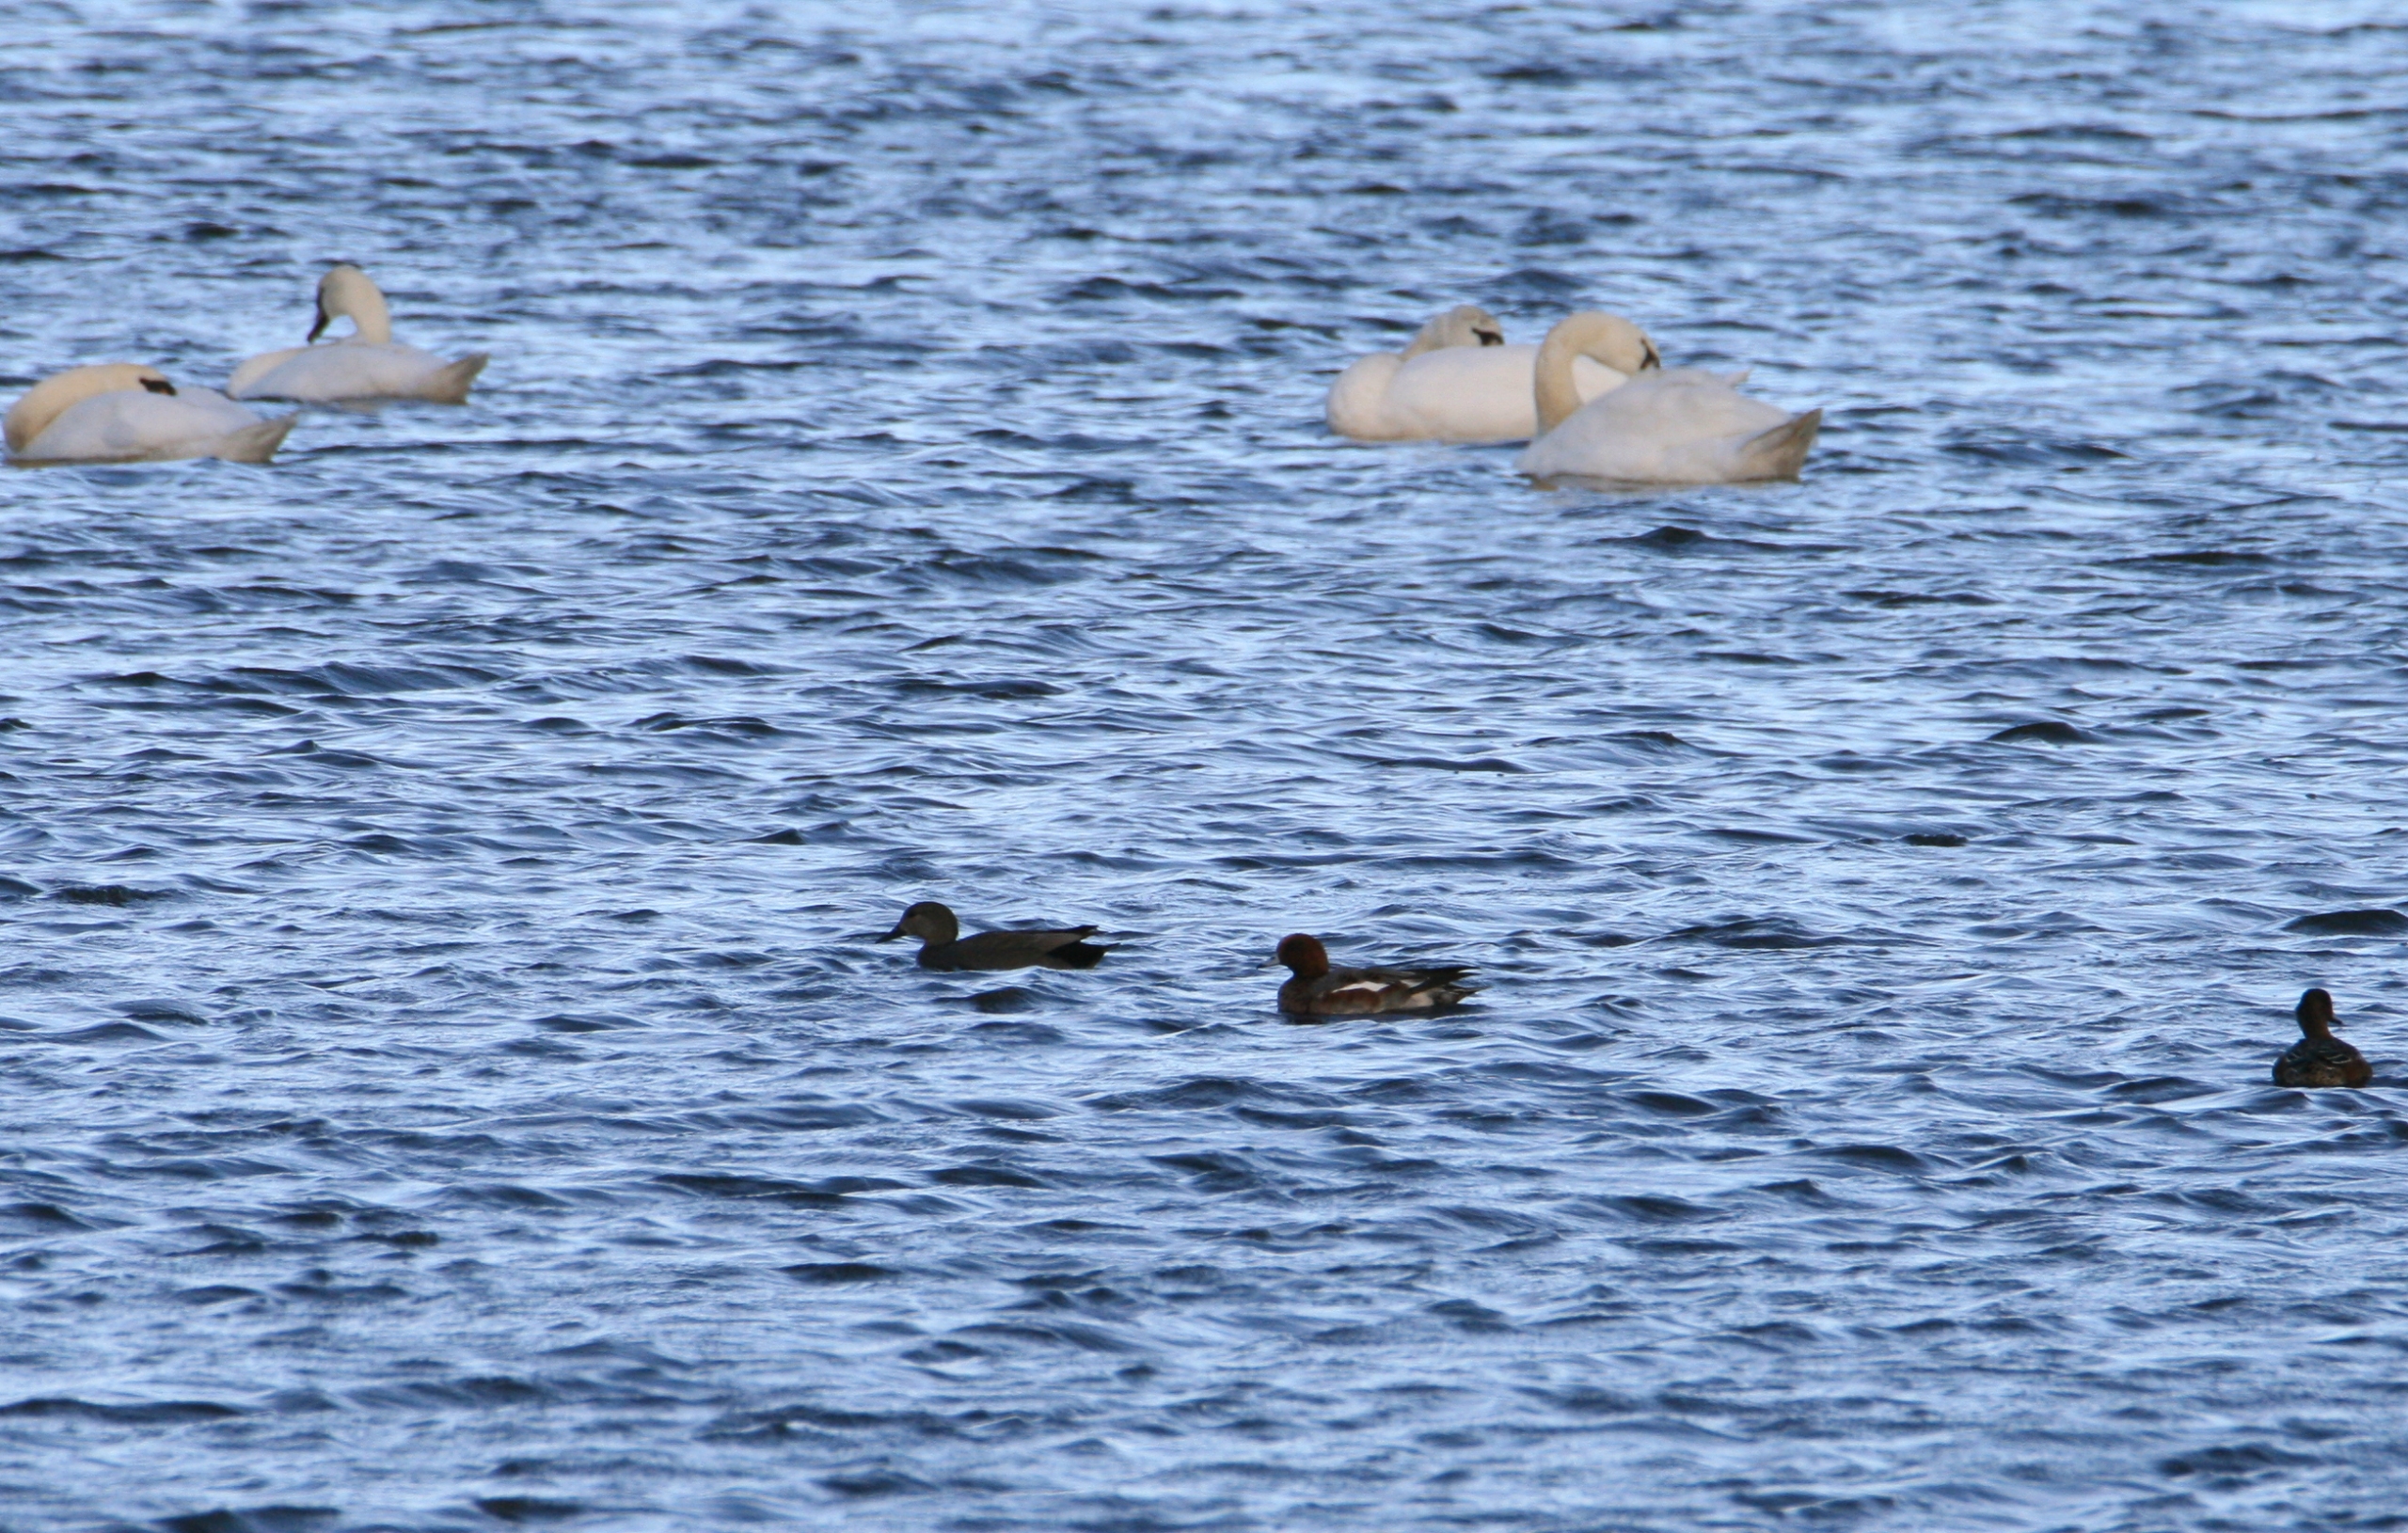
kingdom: Animalia
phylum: Chordata
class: Aves
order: Anseriformes
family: Anatidae
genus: Mareca
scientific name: Mareca strepera
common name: Knarand
